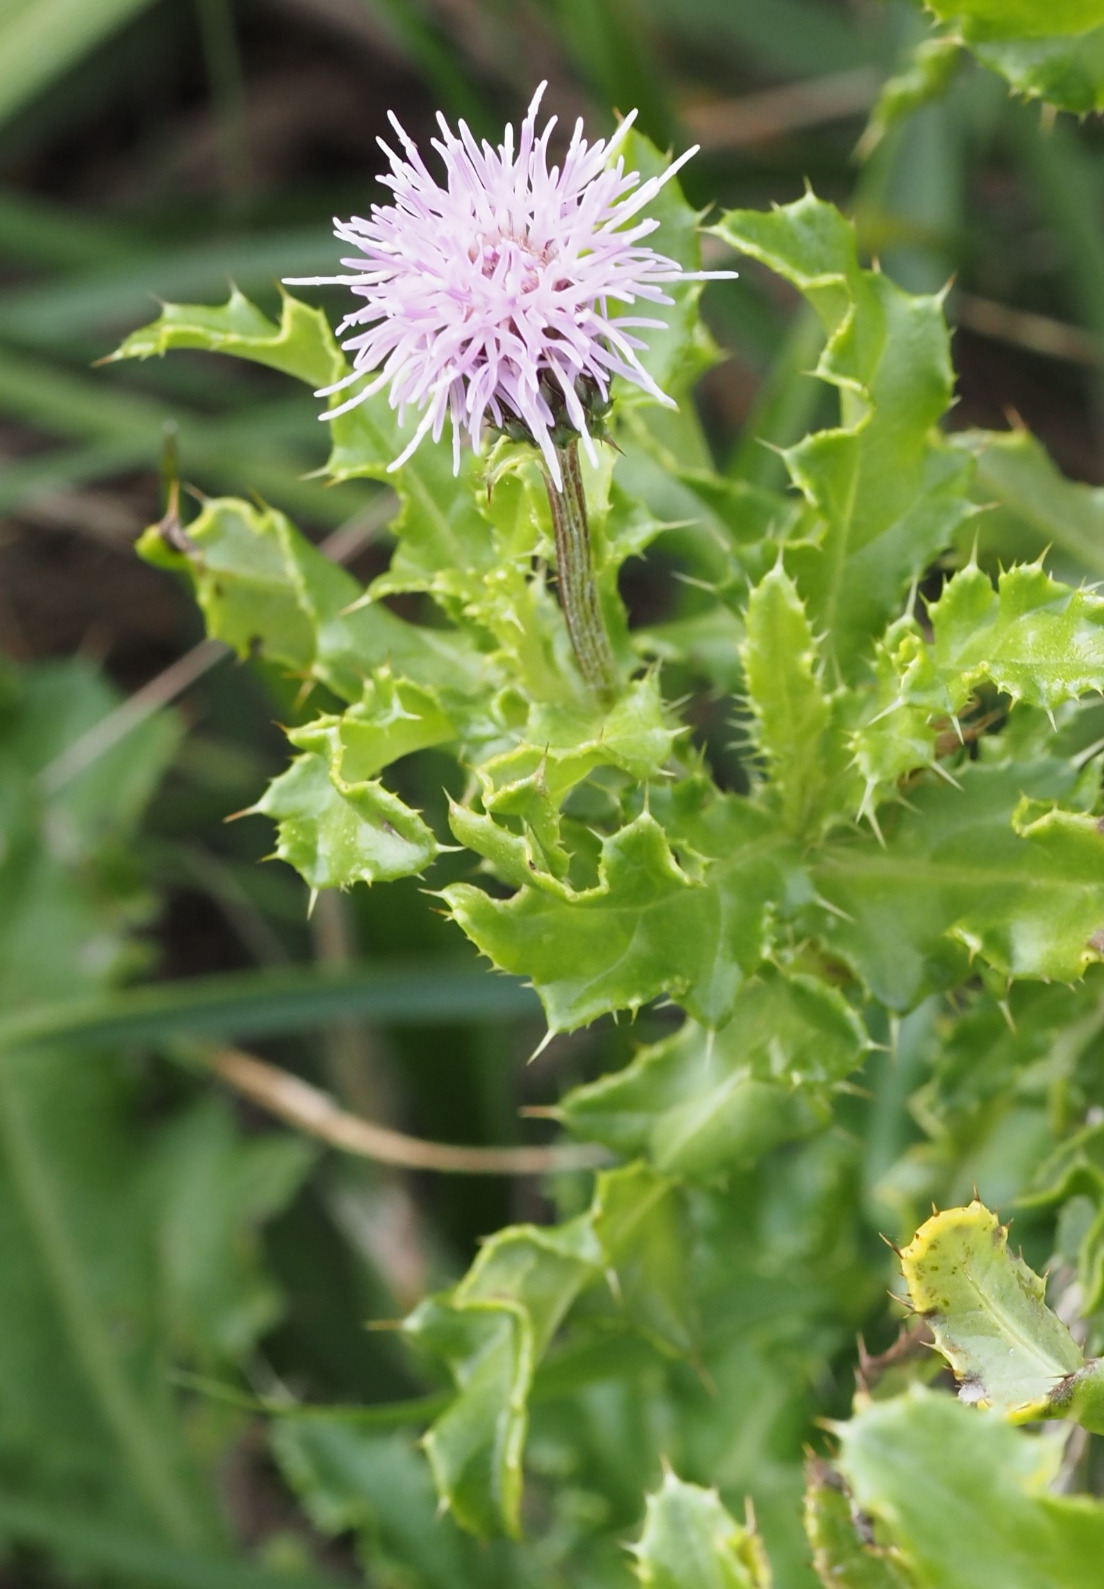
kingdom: Plantae
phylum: Tracheophyta
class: Magnoliopsida
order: Asterales
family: Asteraceae
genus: Cirsium
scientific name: Cirsium arvense
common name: Ager-tidsel
